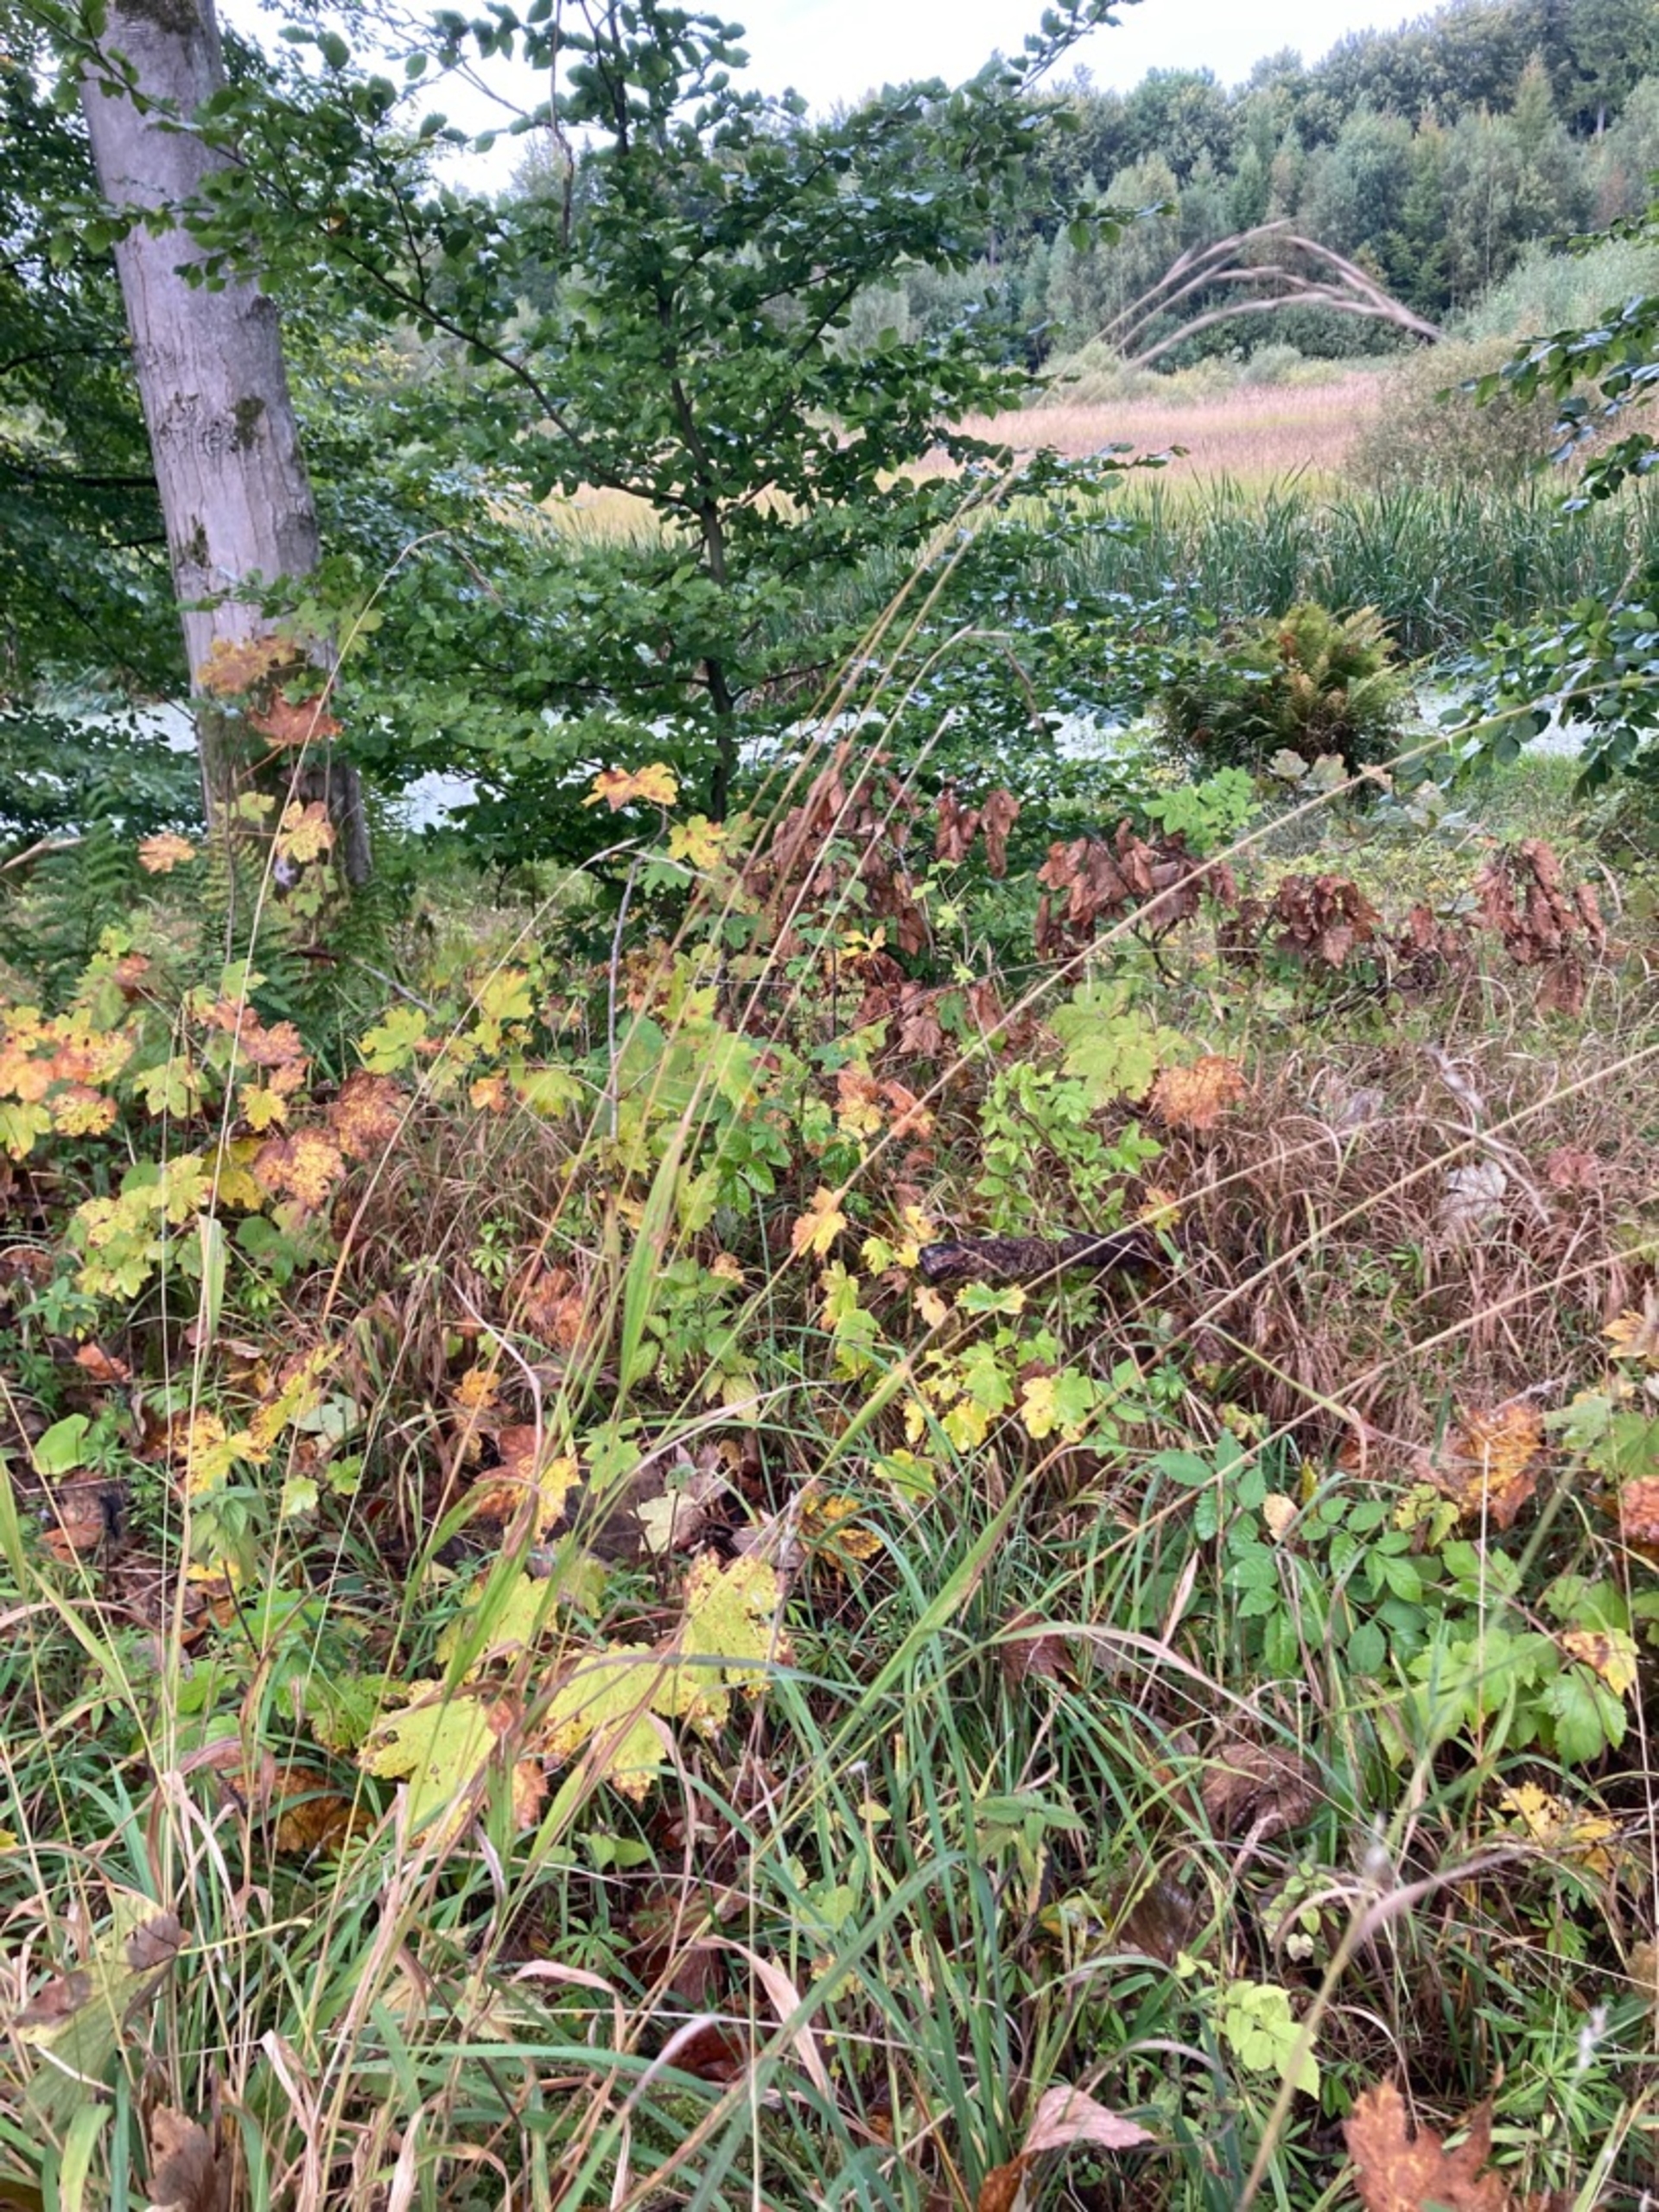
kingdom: Plantae
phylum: Tracheophyta
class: Liliopsida
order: Poales
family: Poaceae
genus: Brachypodium
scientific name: Brachypodium sylvaticum
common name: Skov-stilkaks
